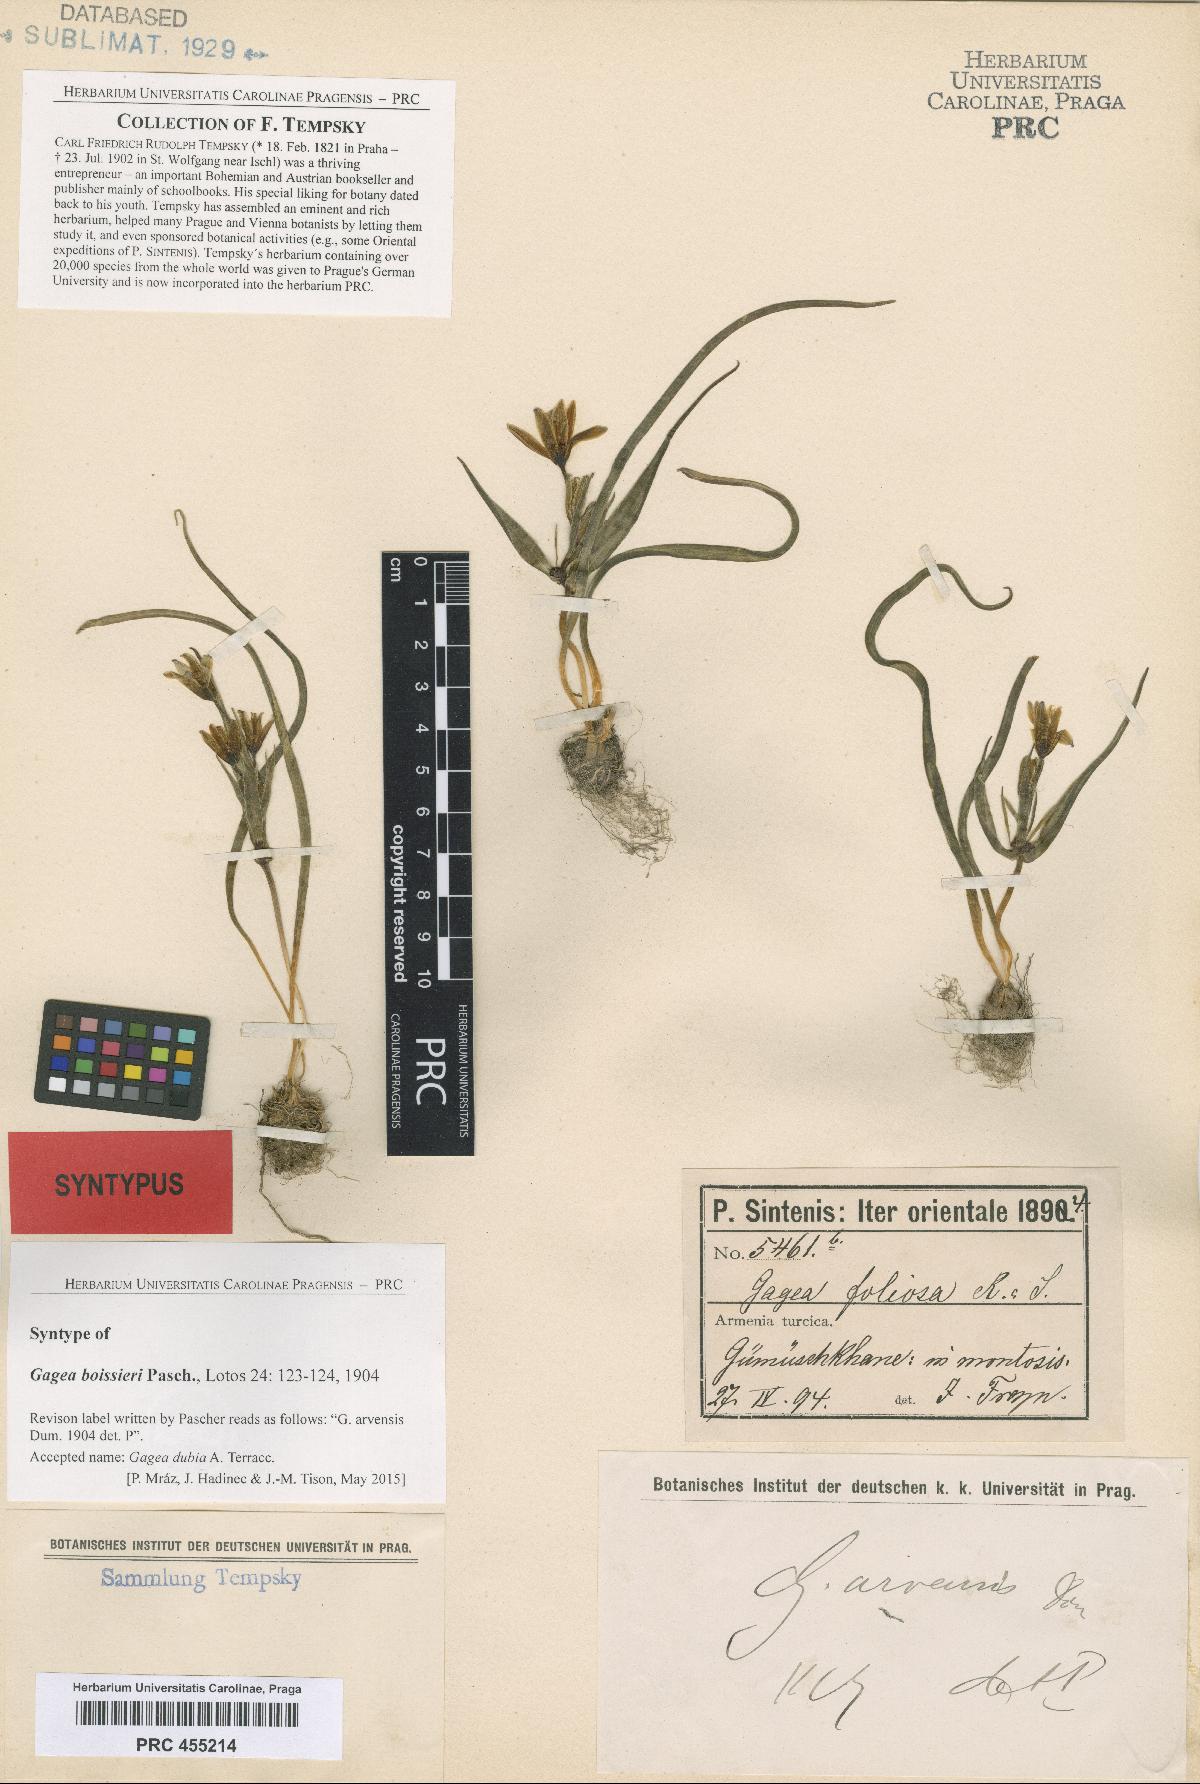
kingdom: Plantae
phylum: Tracheophyta
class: Liliopsida
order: Liliales
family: Liliaceae
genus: Gagea
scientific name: Gagea villosa
